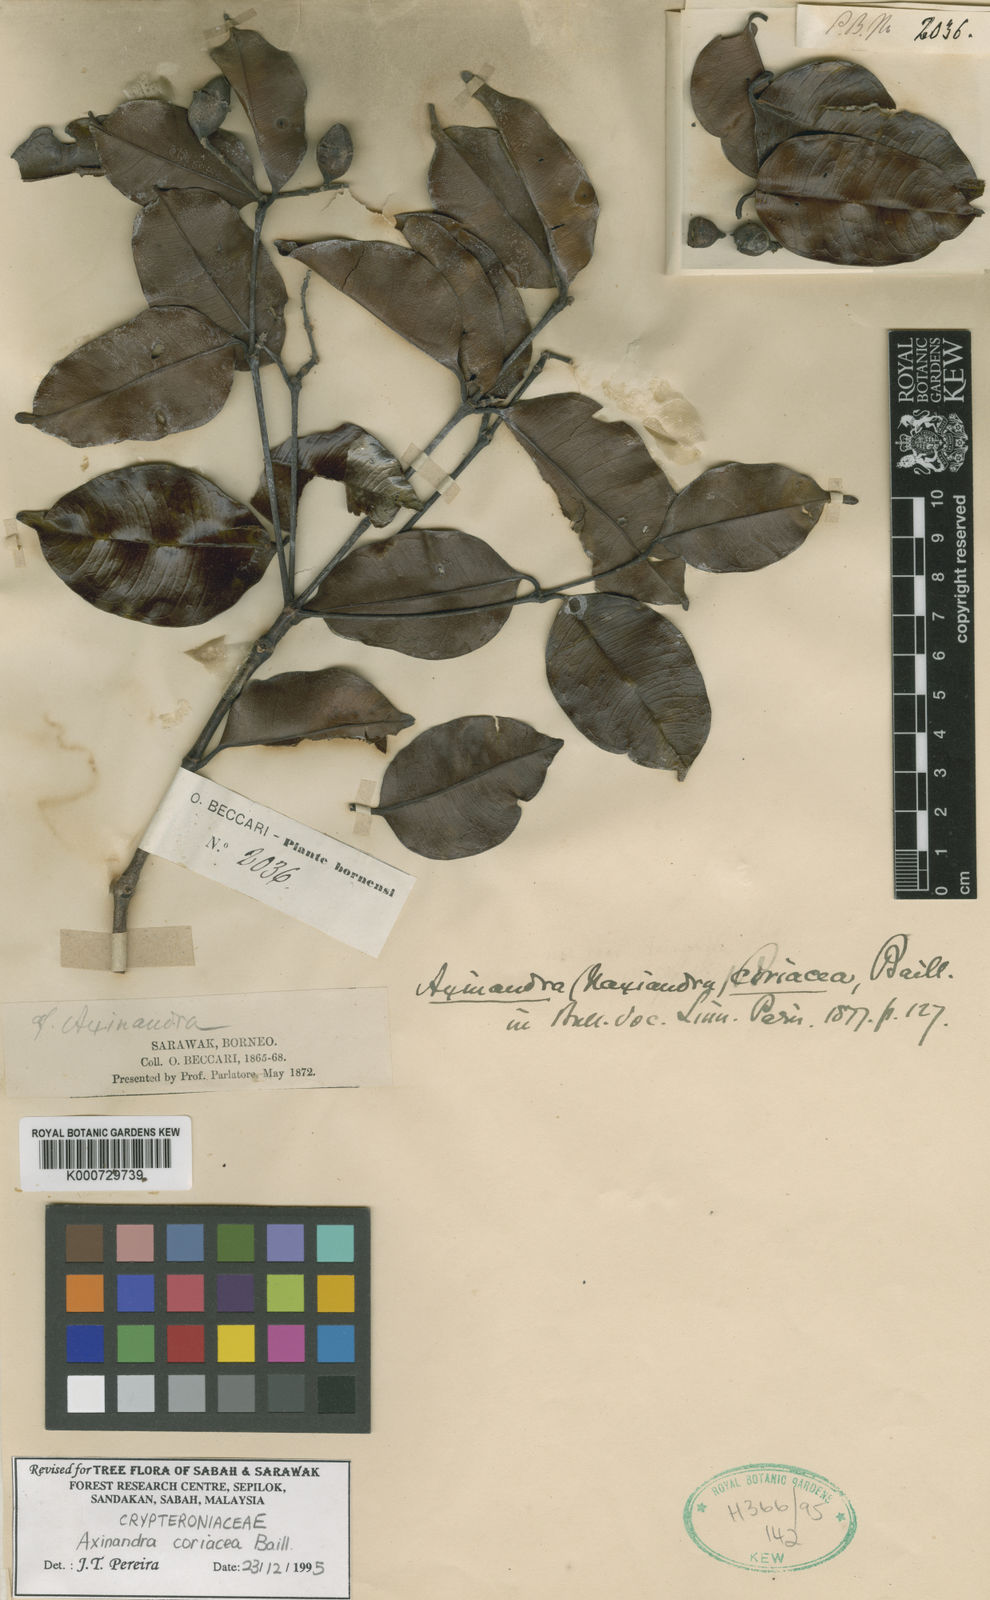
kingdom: Plantae
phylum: Tracheophyta
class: Magnoliopsida
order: Myrtales
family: Crypteroniaceae
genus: Axinandra
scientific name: Axinandra coriacea
